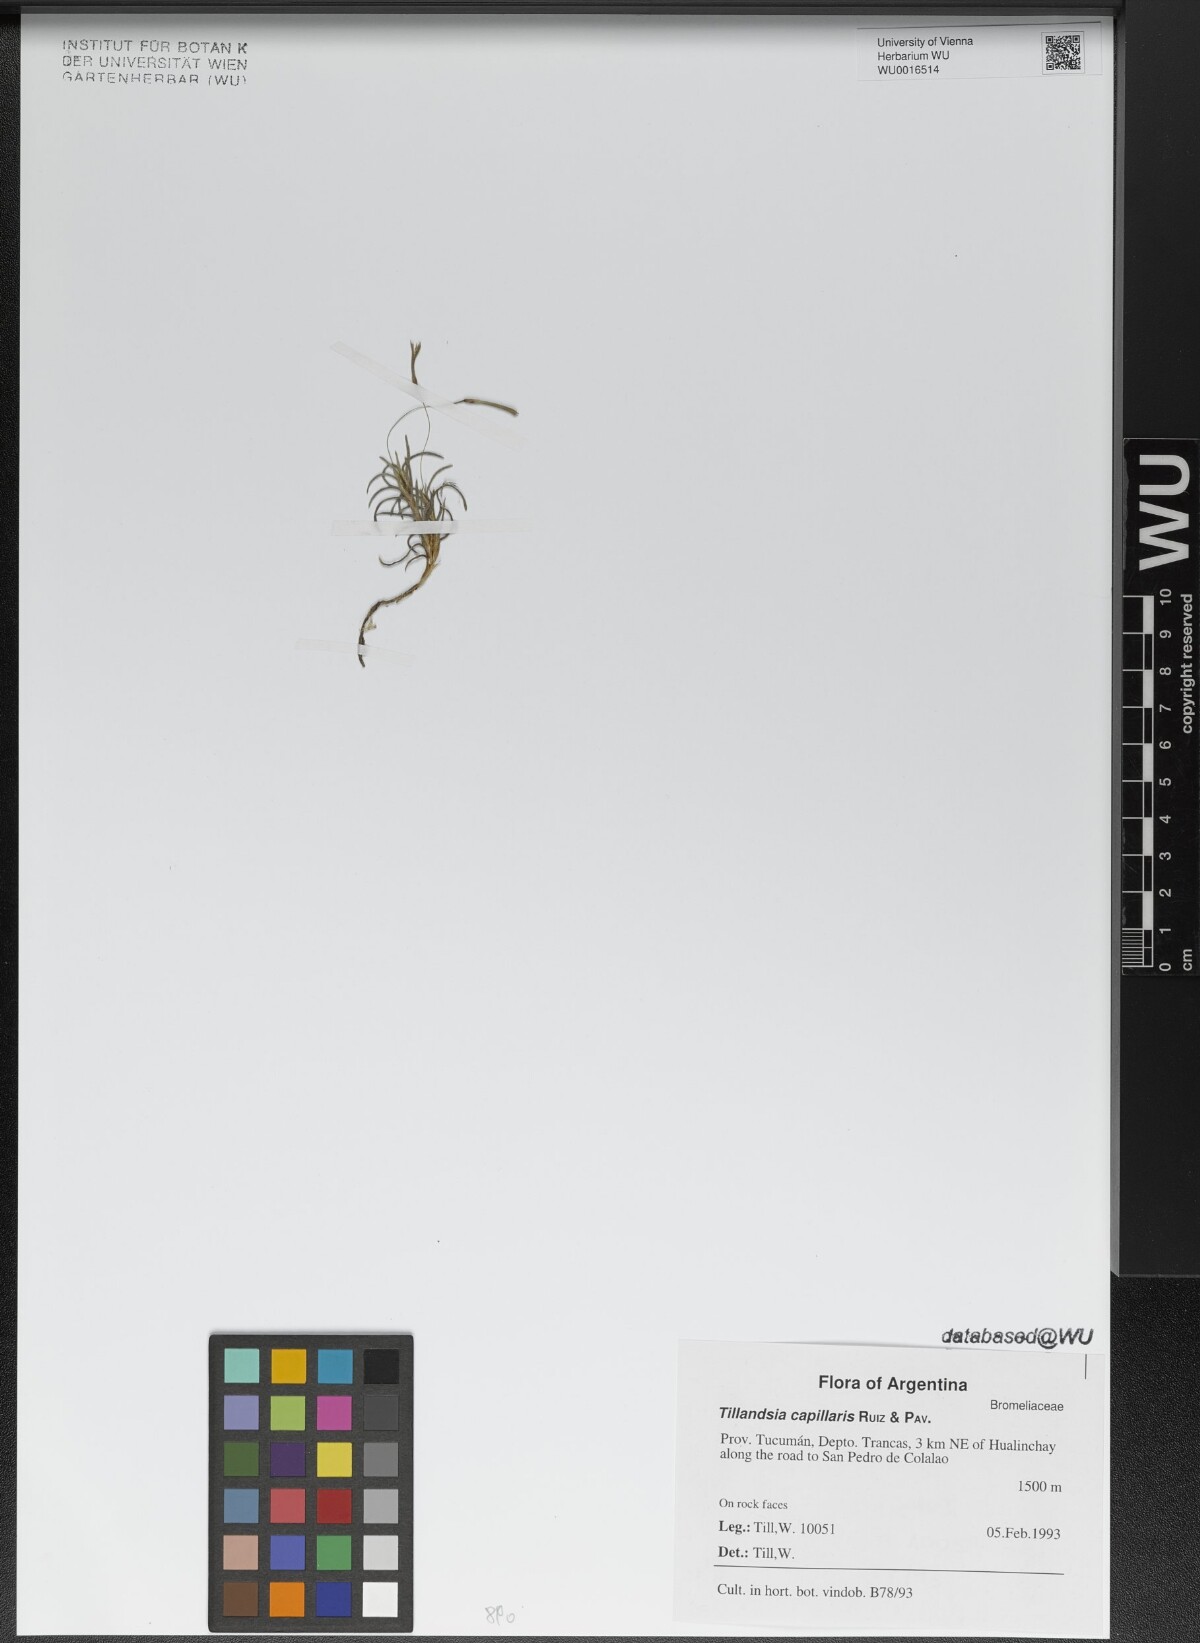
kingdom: Plantae
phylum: Tracheophyta
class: Liliopsida
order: Poales
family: Bromeliaceae
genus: Tillandsia
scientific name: Tillandsia capillaris
